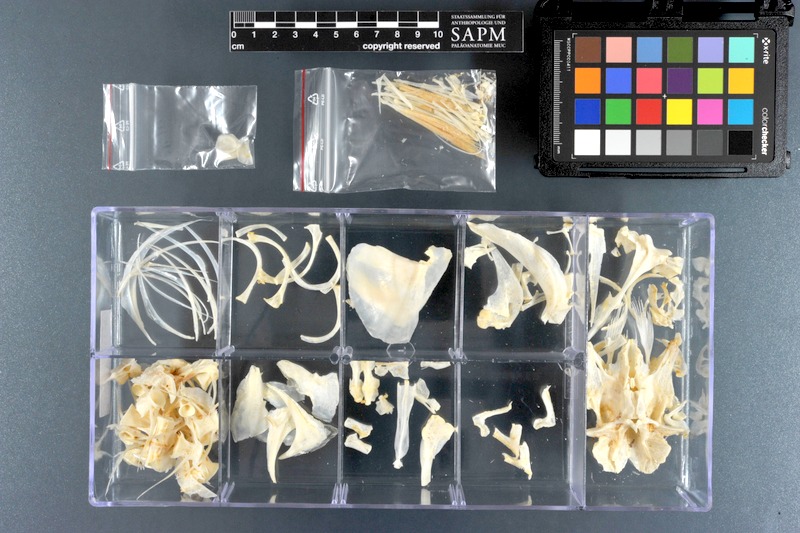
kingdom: Animalia
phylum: Chordata
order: Mugiliformes
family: Mugilidae
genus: Mugil
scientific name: Mugil
